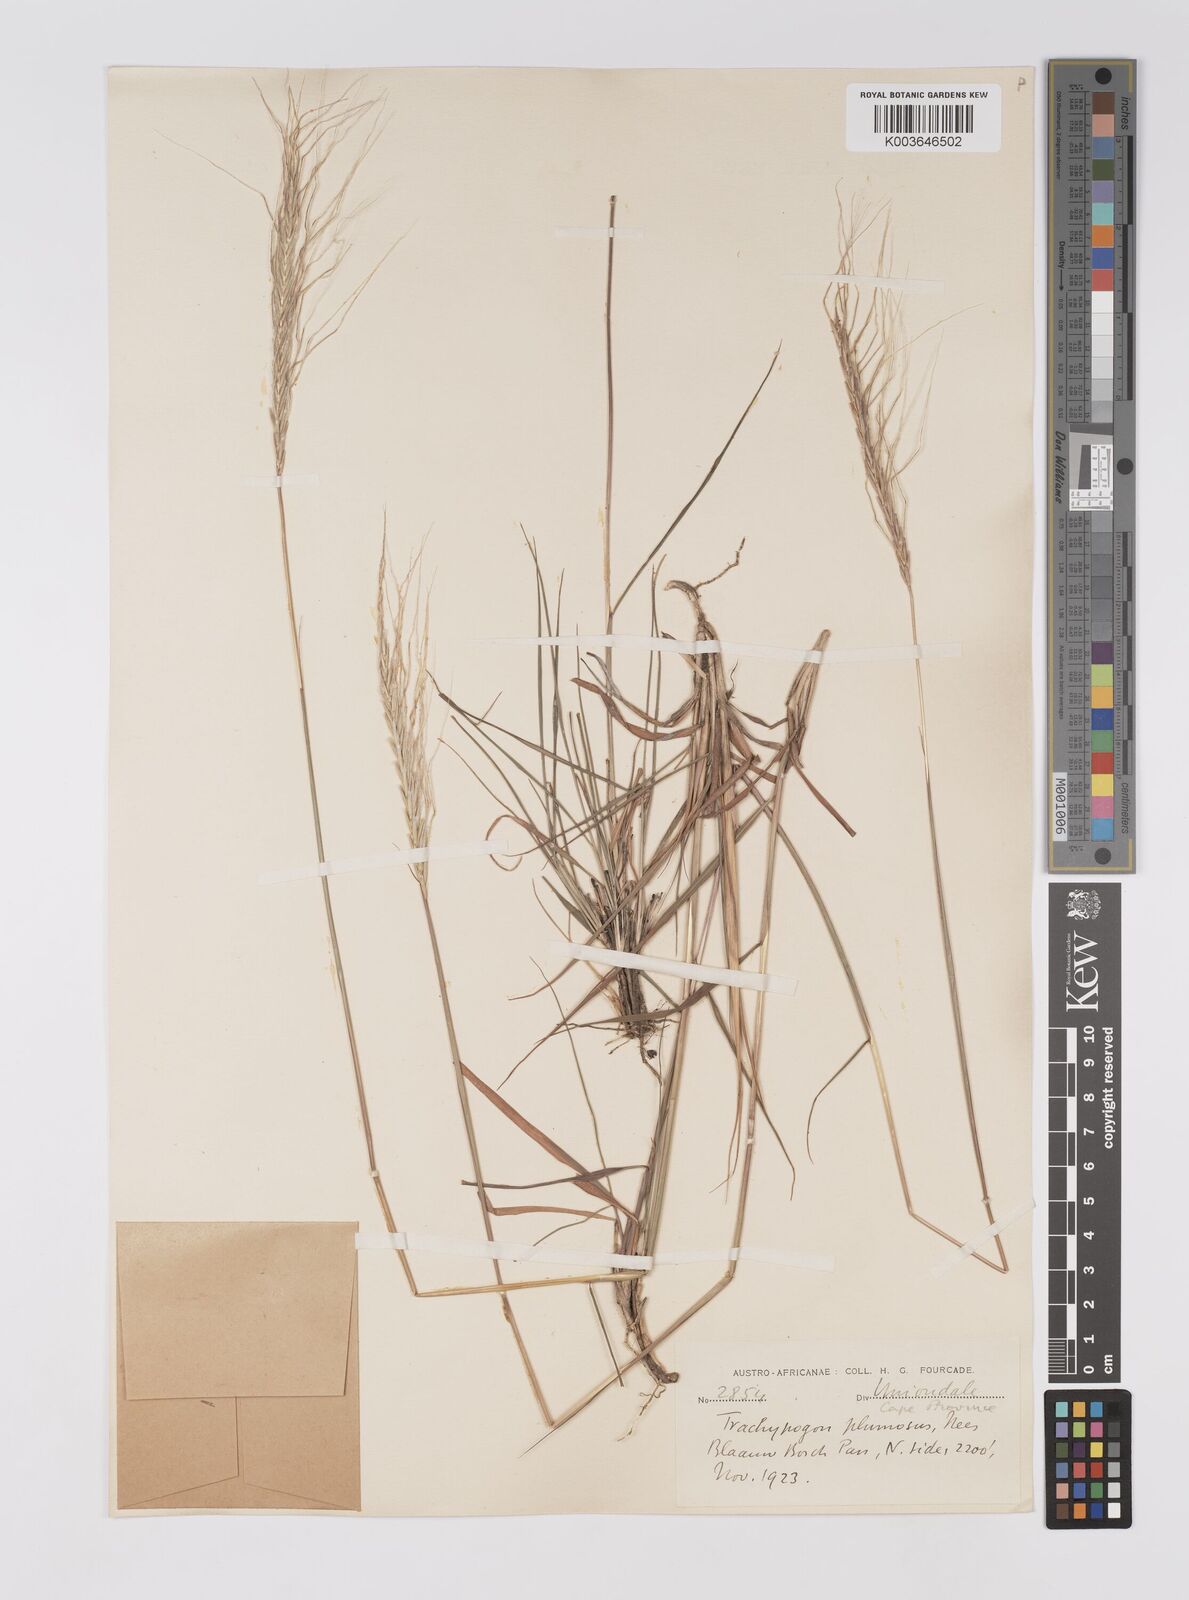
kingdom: Plantae
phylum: Tracheophyta
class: Liliopsida
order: Poales
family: Poaceae
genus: Trachypogon
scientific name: Trachypogon spicatus
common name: Crinkle-awn
